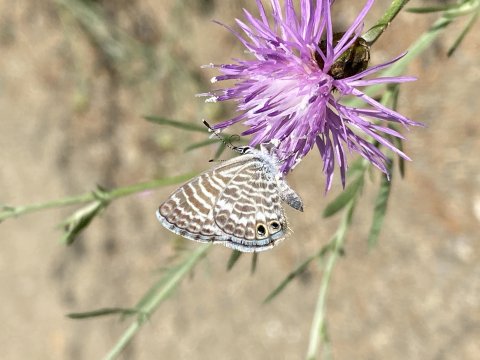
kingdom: Animalia
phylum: Arthropoda
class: Insecta
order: Lepidoptera
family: Lycaenidae
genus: Leptotes
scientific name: Leptotes marina
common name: Marine Blue
